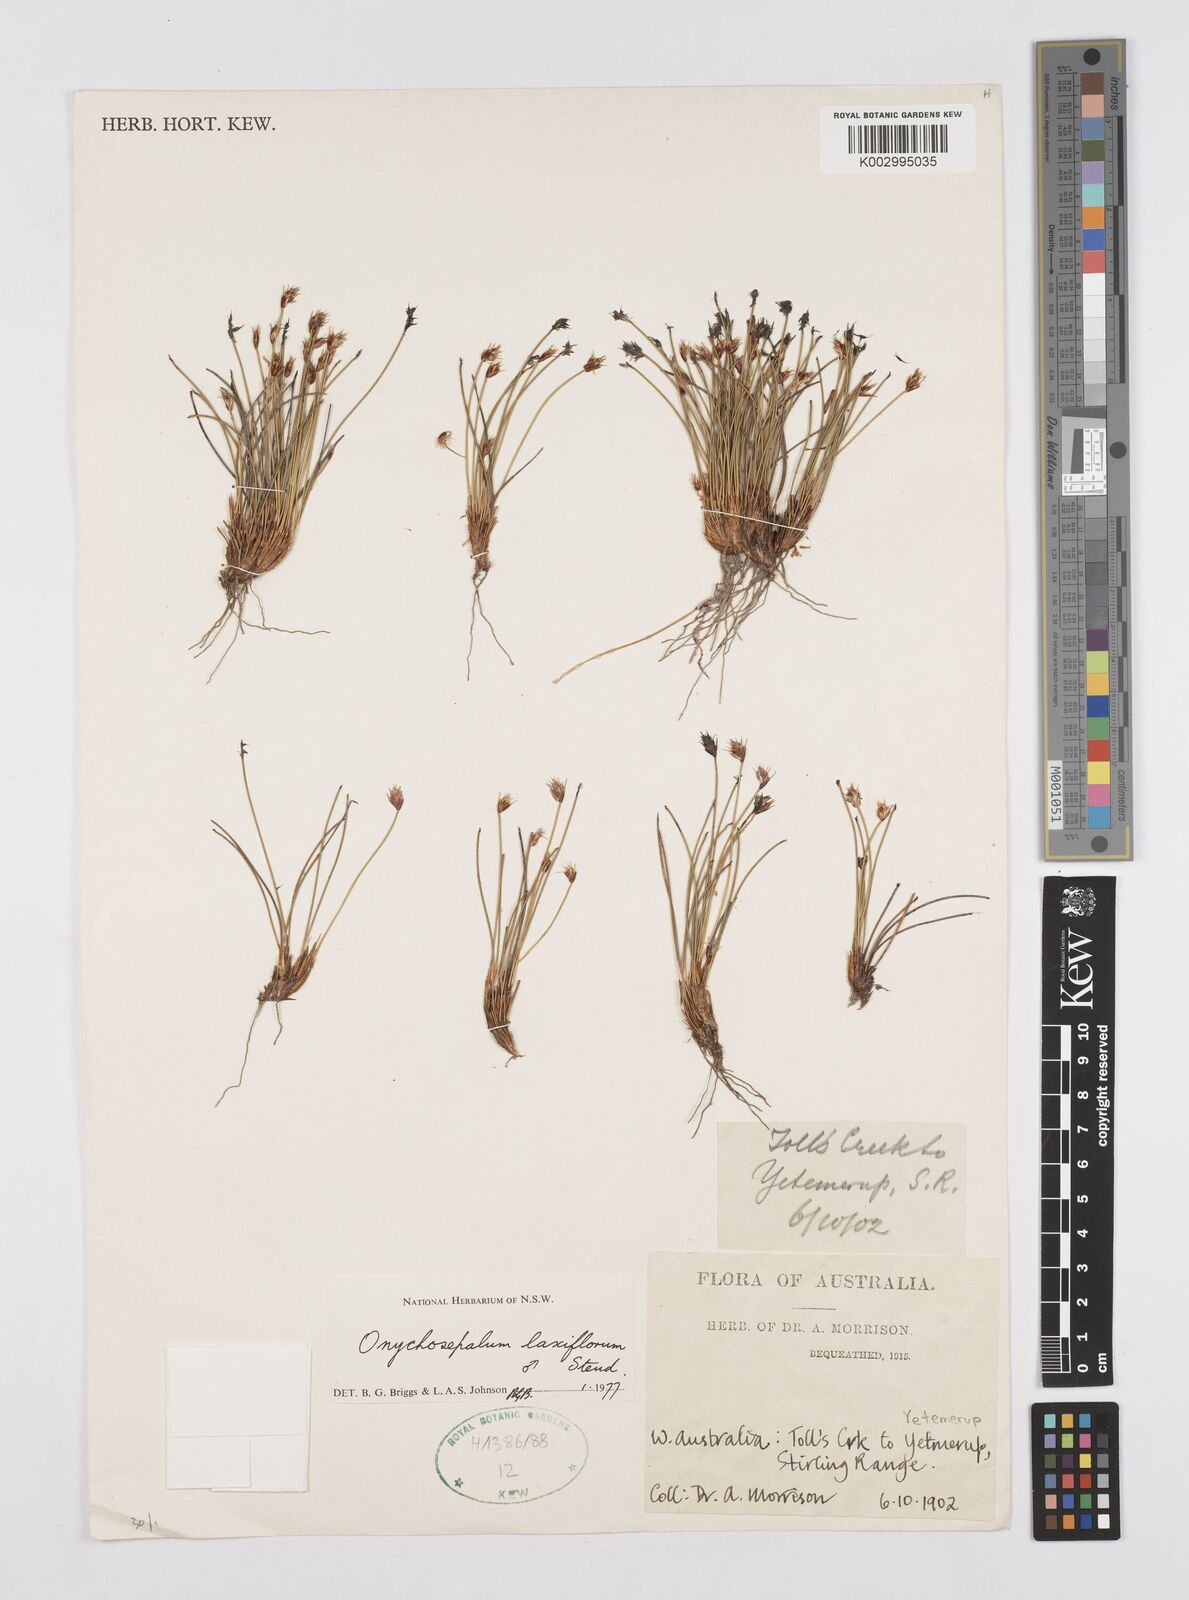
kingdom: Plantae
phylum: Tracheophyta
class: Liliopsida
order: Poales
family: Restionaceae
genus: Desmocladus
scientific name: Desmocladus laxiflorus
